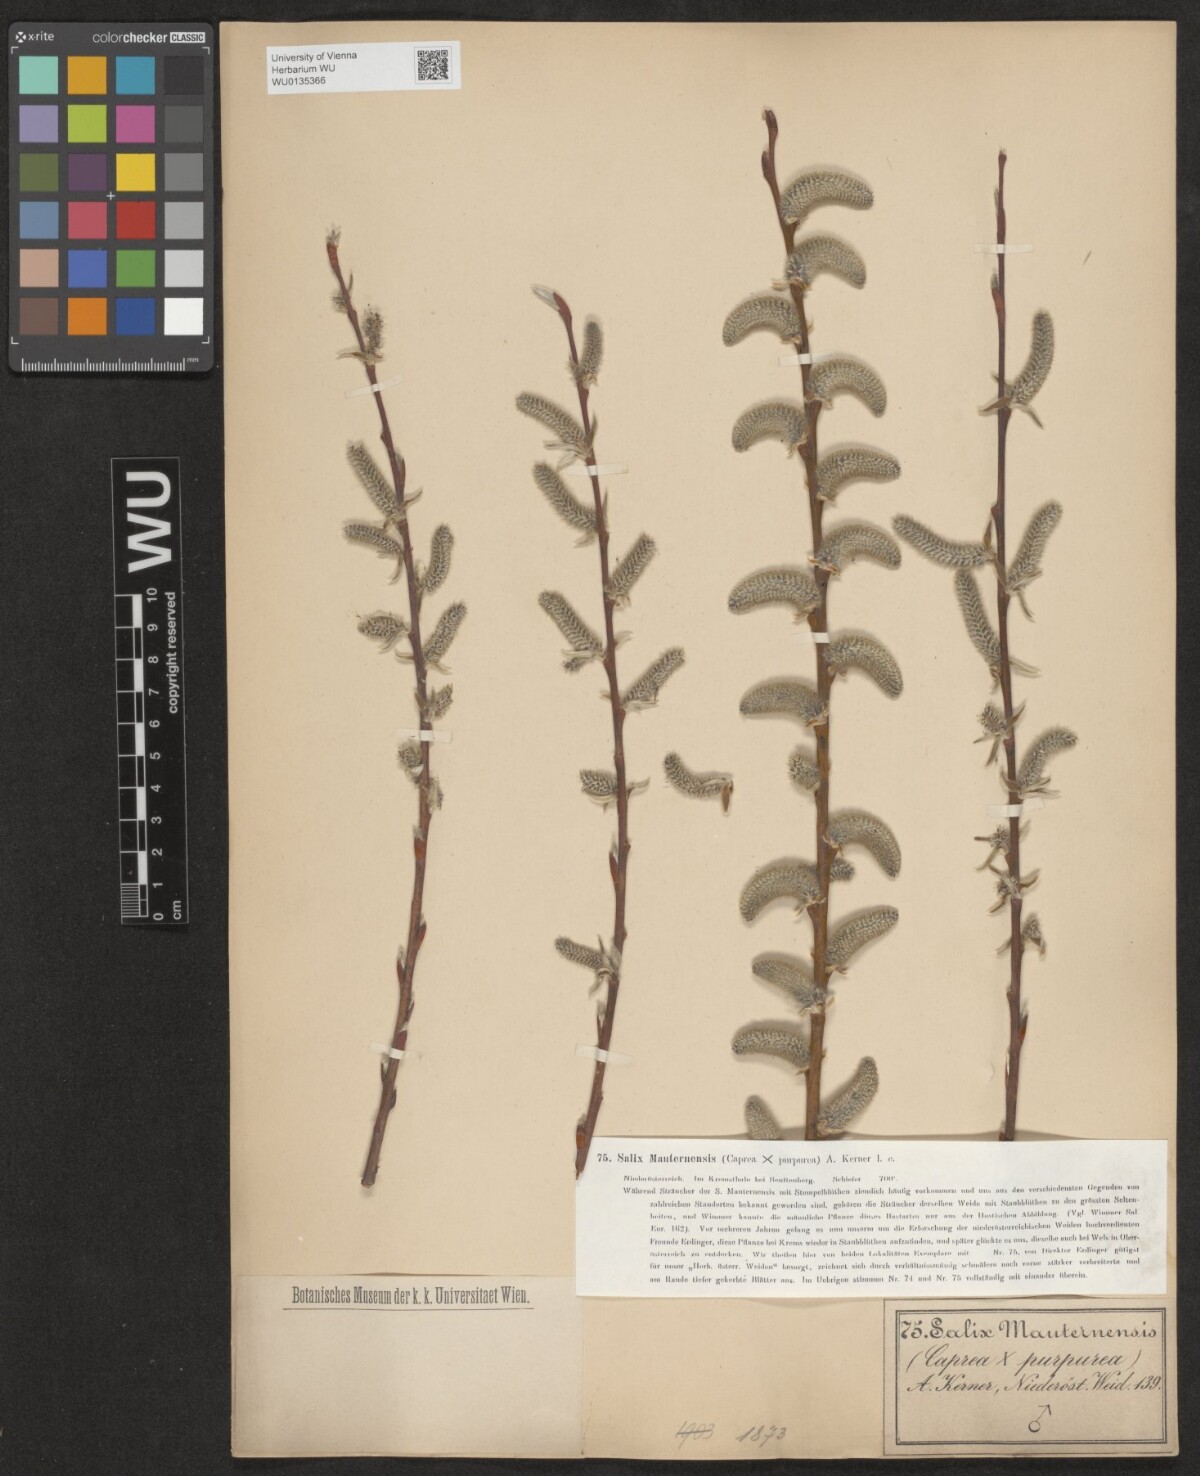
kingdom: Plantae
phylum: Tracheophyta
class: Magnoliopsida
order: Malpighiales
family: Salicaceae
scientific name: Salicaceae
